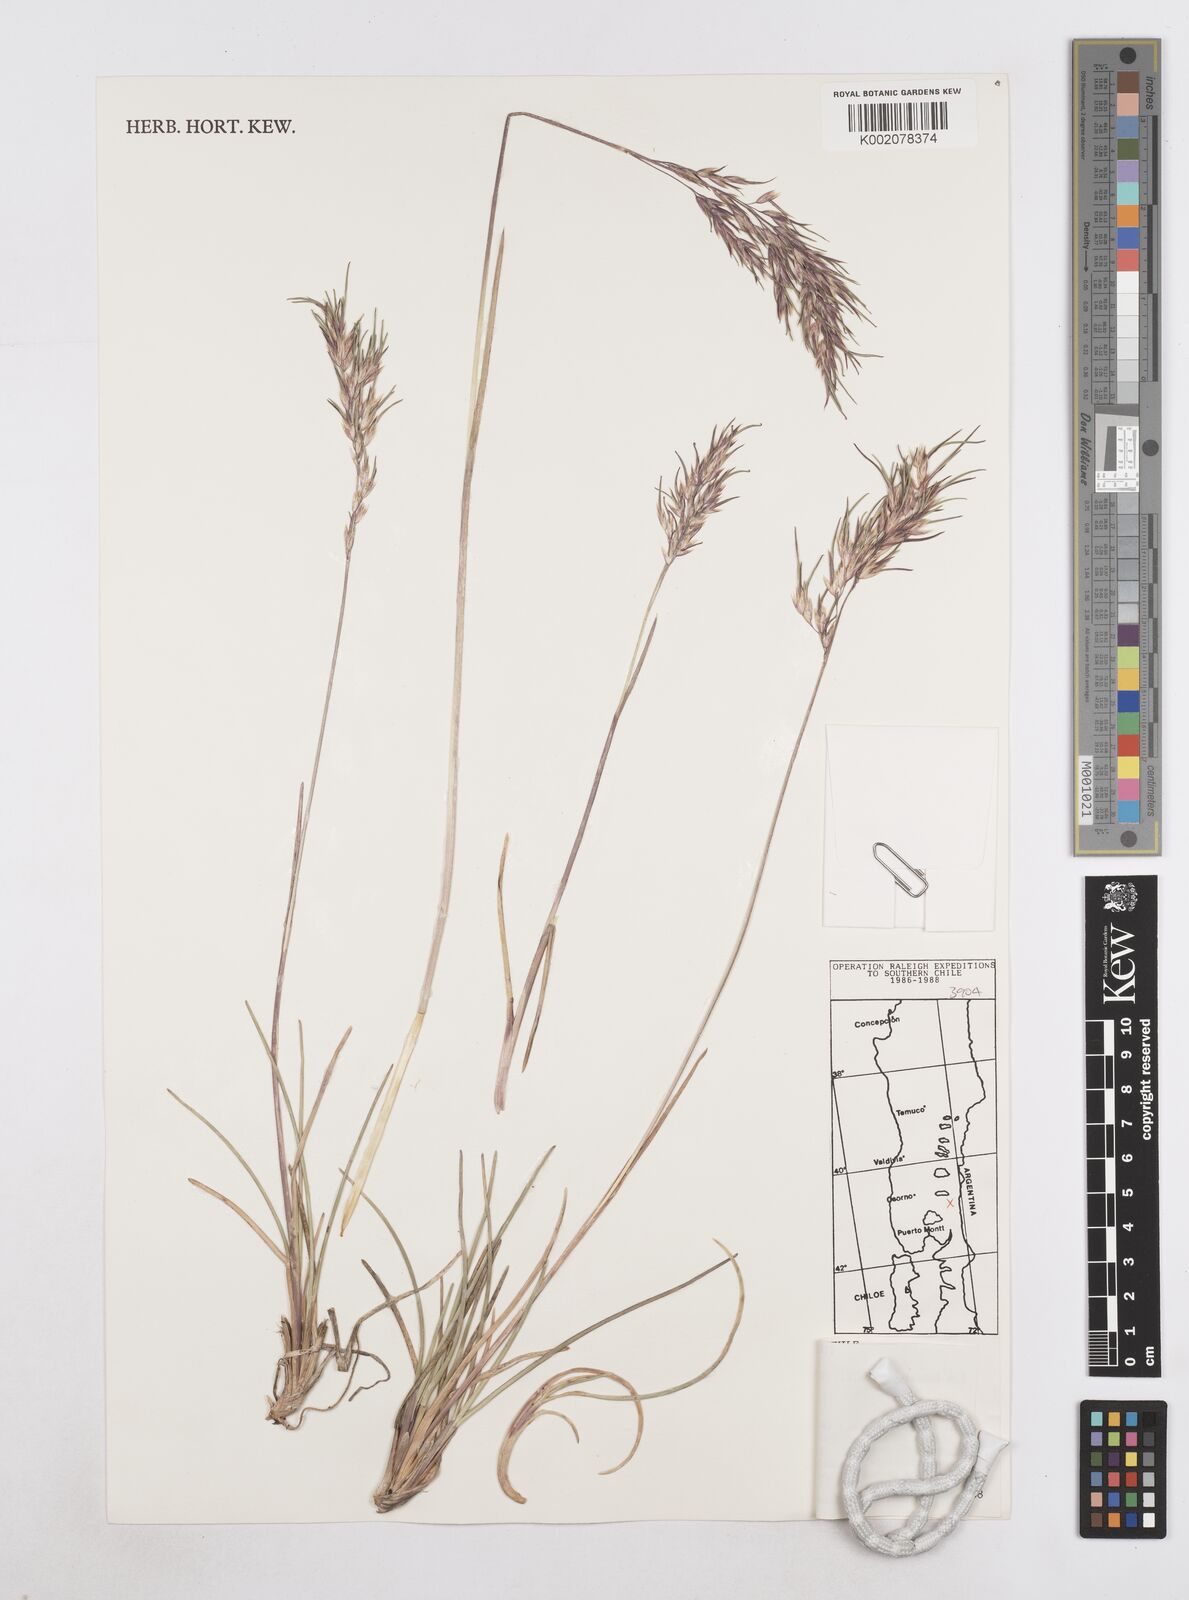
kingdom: Plantae
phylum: Tracheophyta
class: Liliopsida
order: Poales
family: Poaceae
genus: Poa
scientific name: Poa alopecurus
